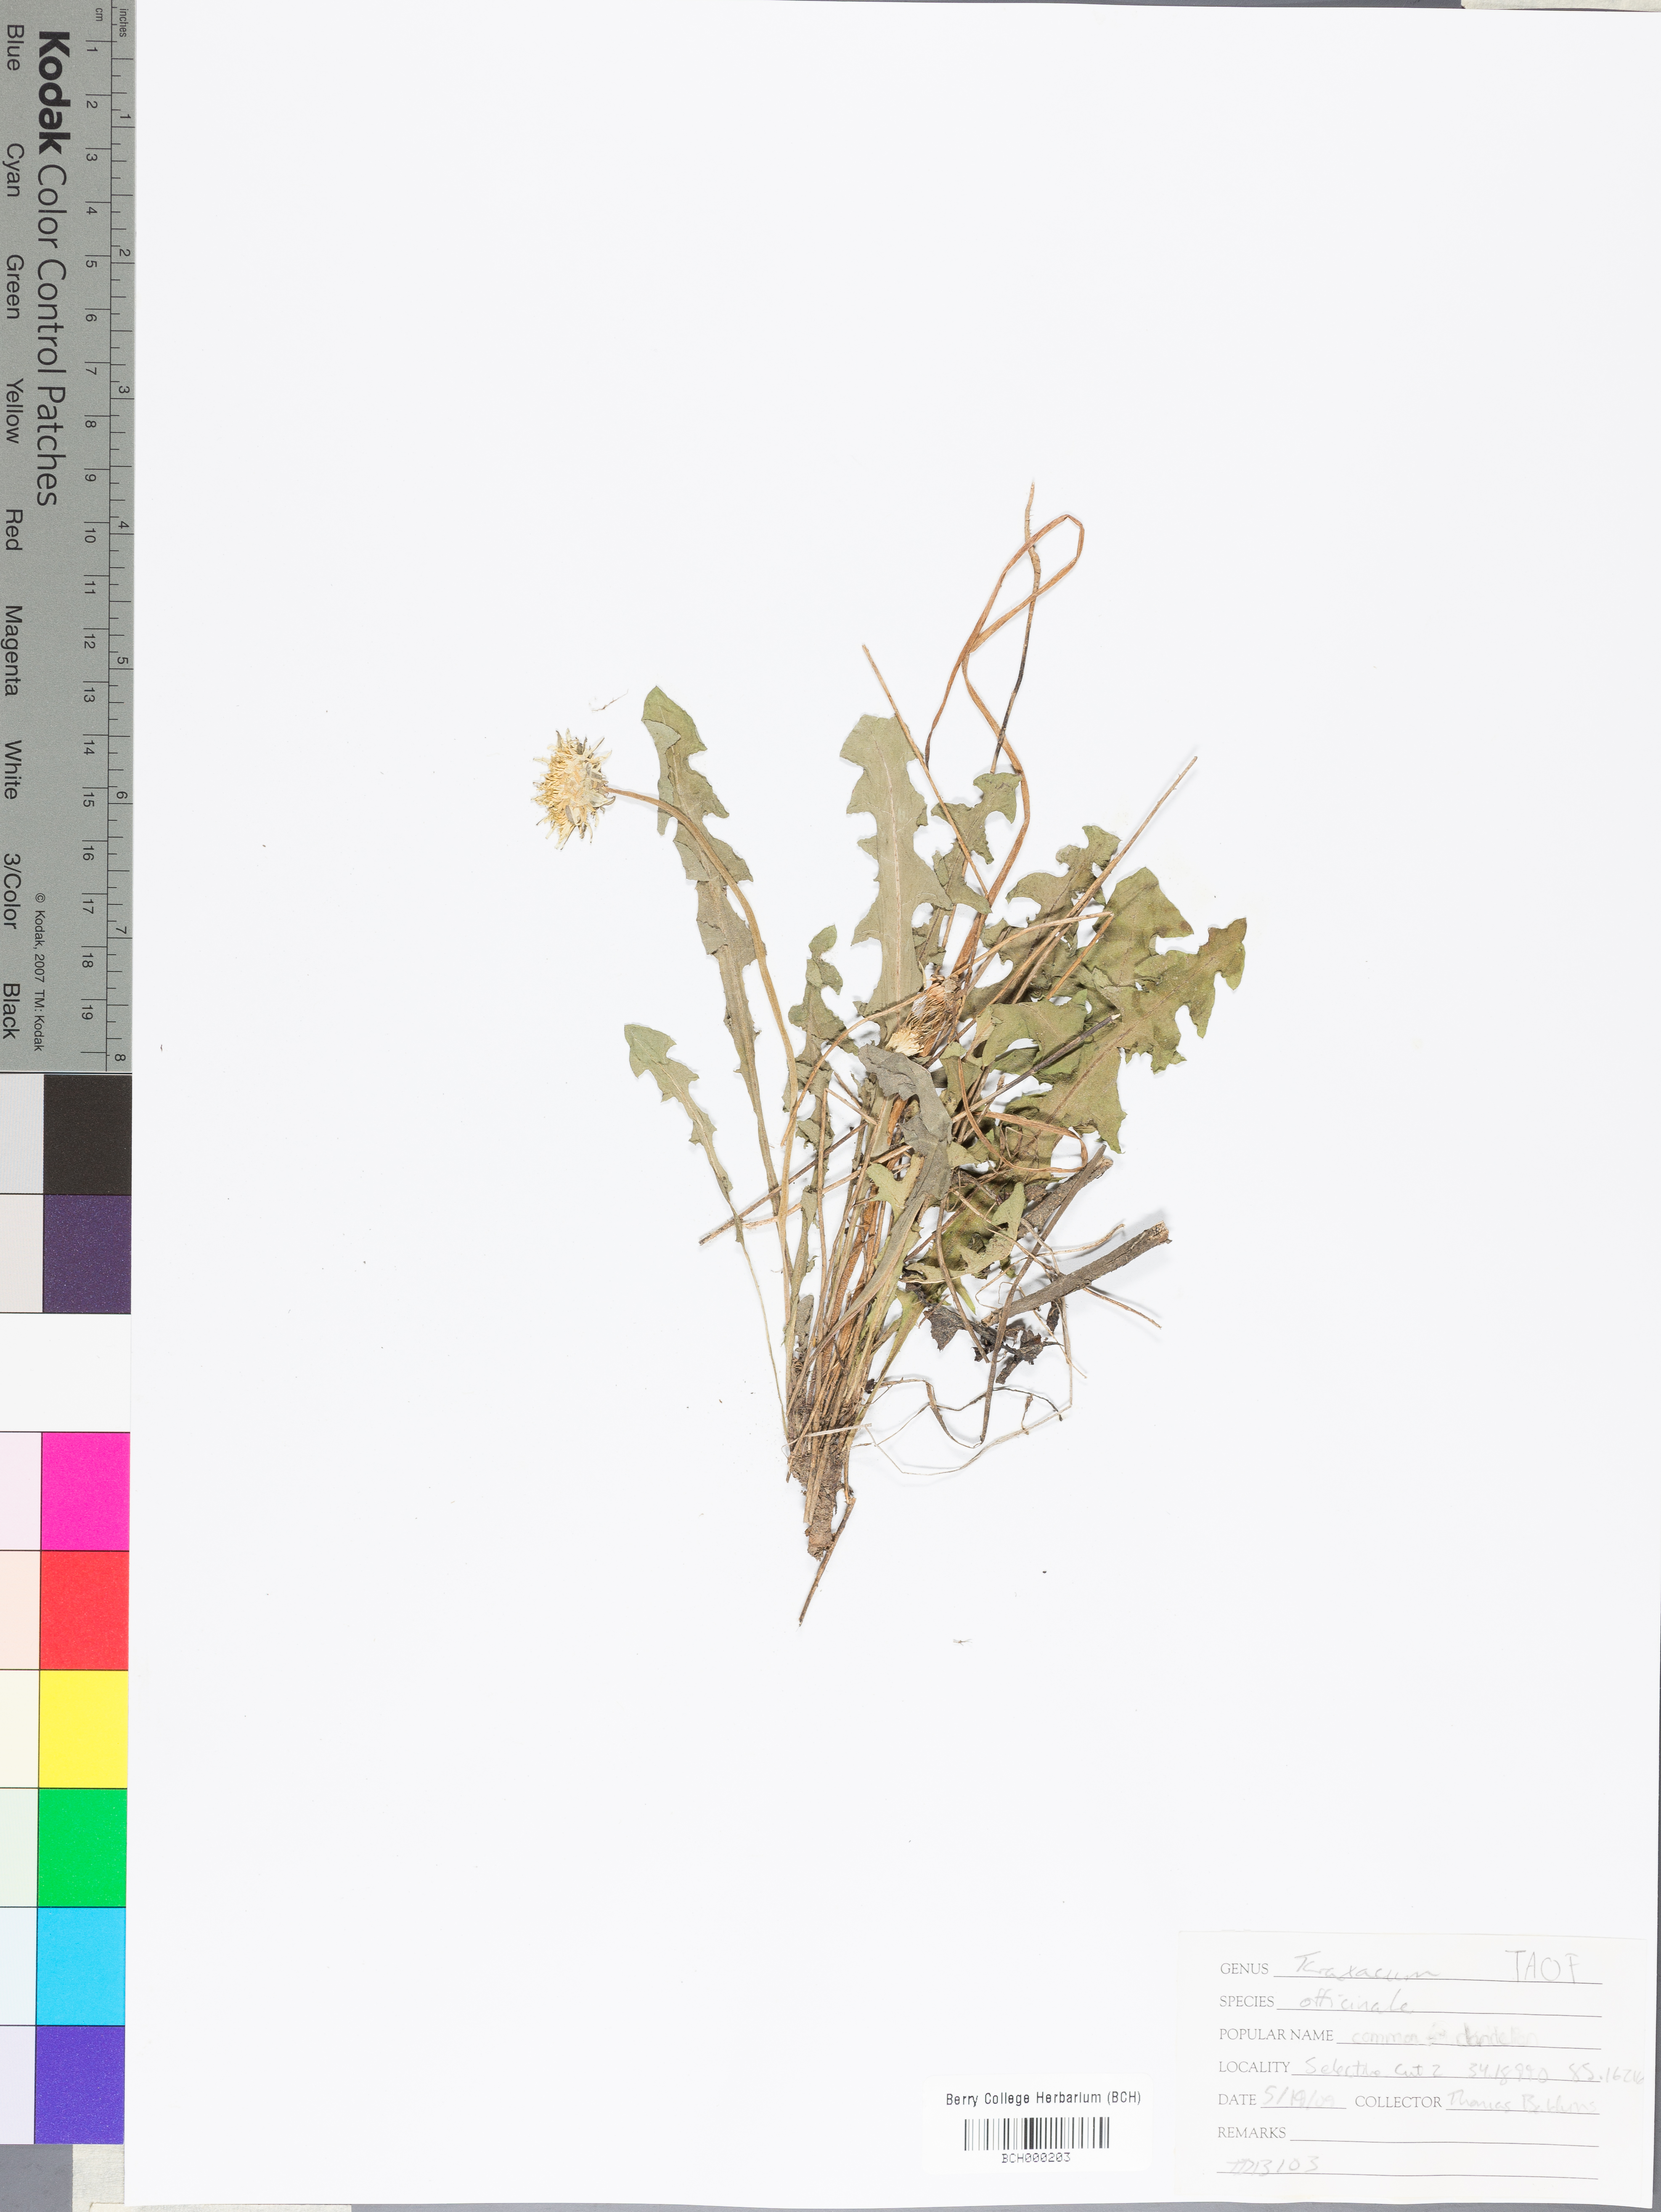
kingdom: Plantae
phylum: Tracheophyta
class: Magnoliopsida
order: Asterales
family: Asteraceae
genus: Taraxacum
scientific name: Taraxacum officinale
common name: Common dandelion
